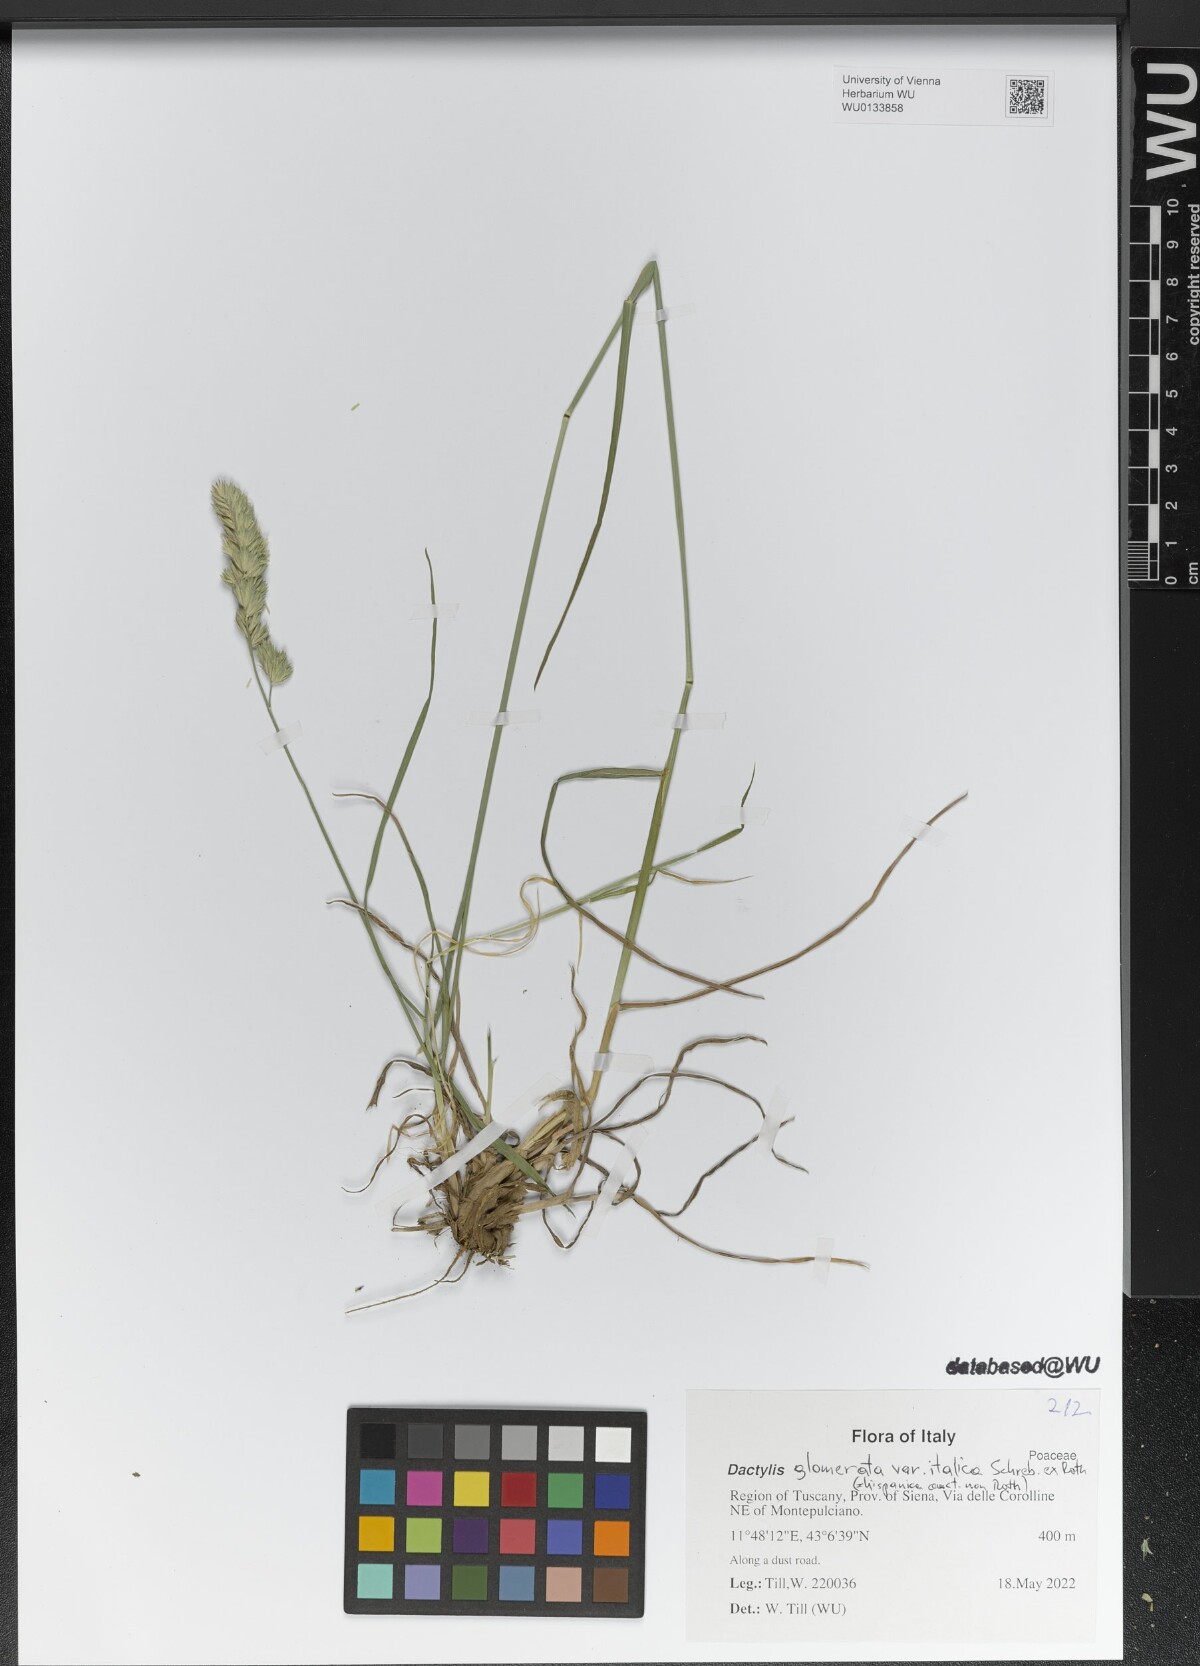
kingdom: Plantae
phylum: Tracheophyta
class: Liliopsida
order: Poales
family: Poaceae
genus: Dactylis
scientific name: Dactylis glomerata
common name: Orchardgrass
